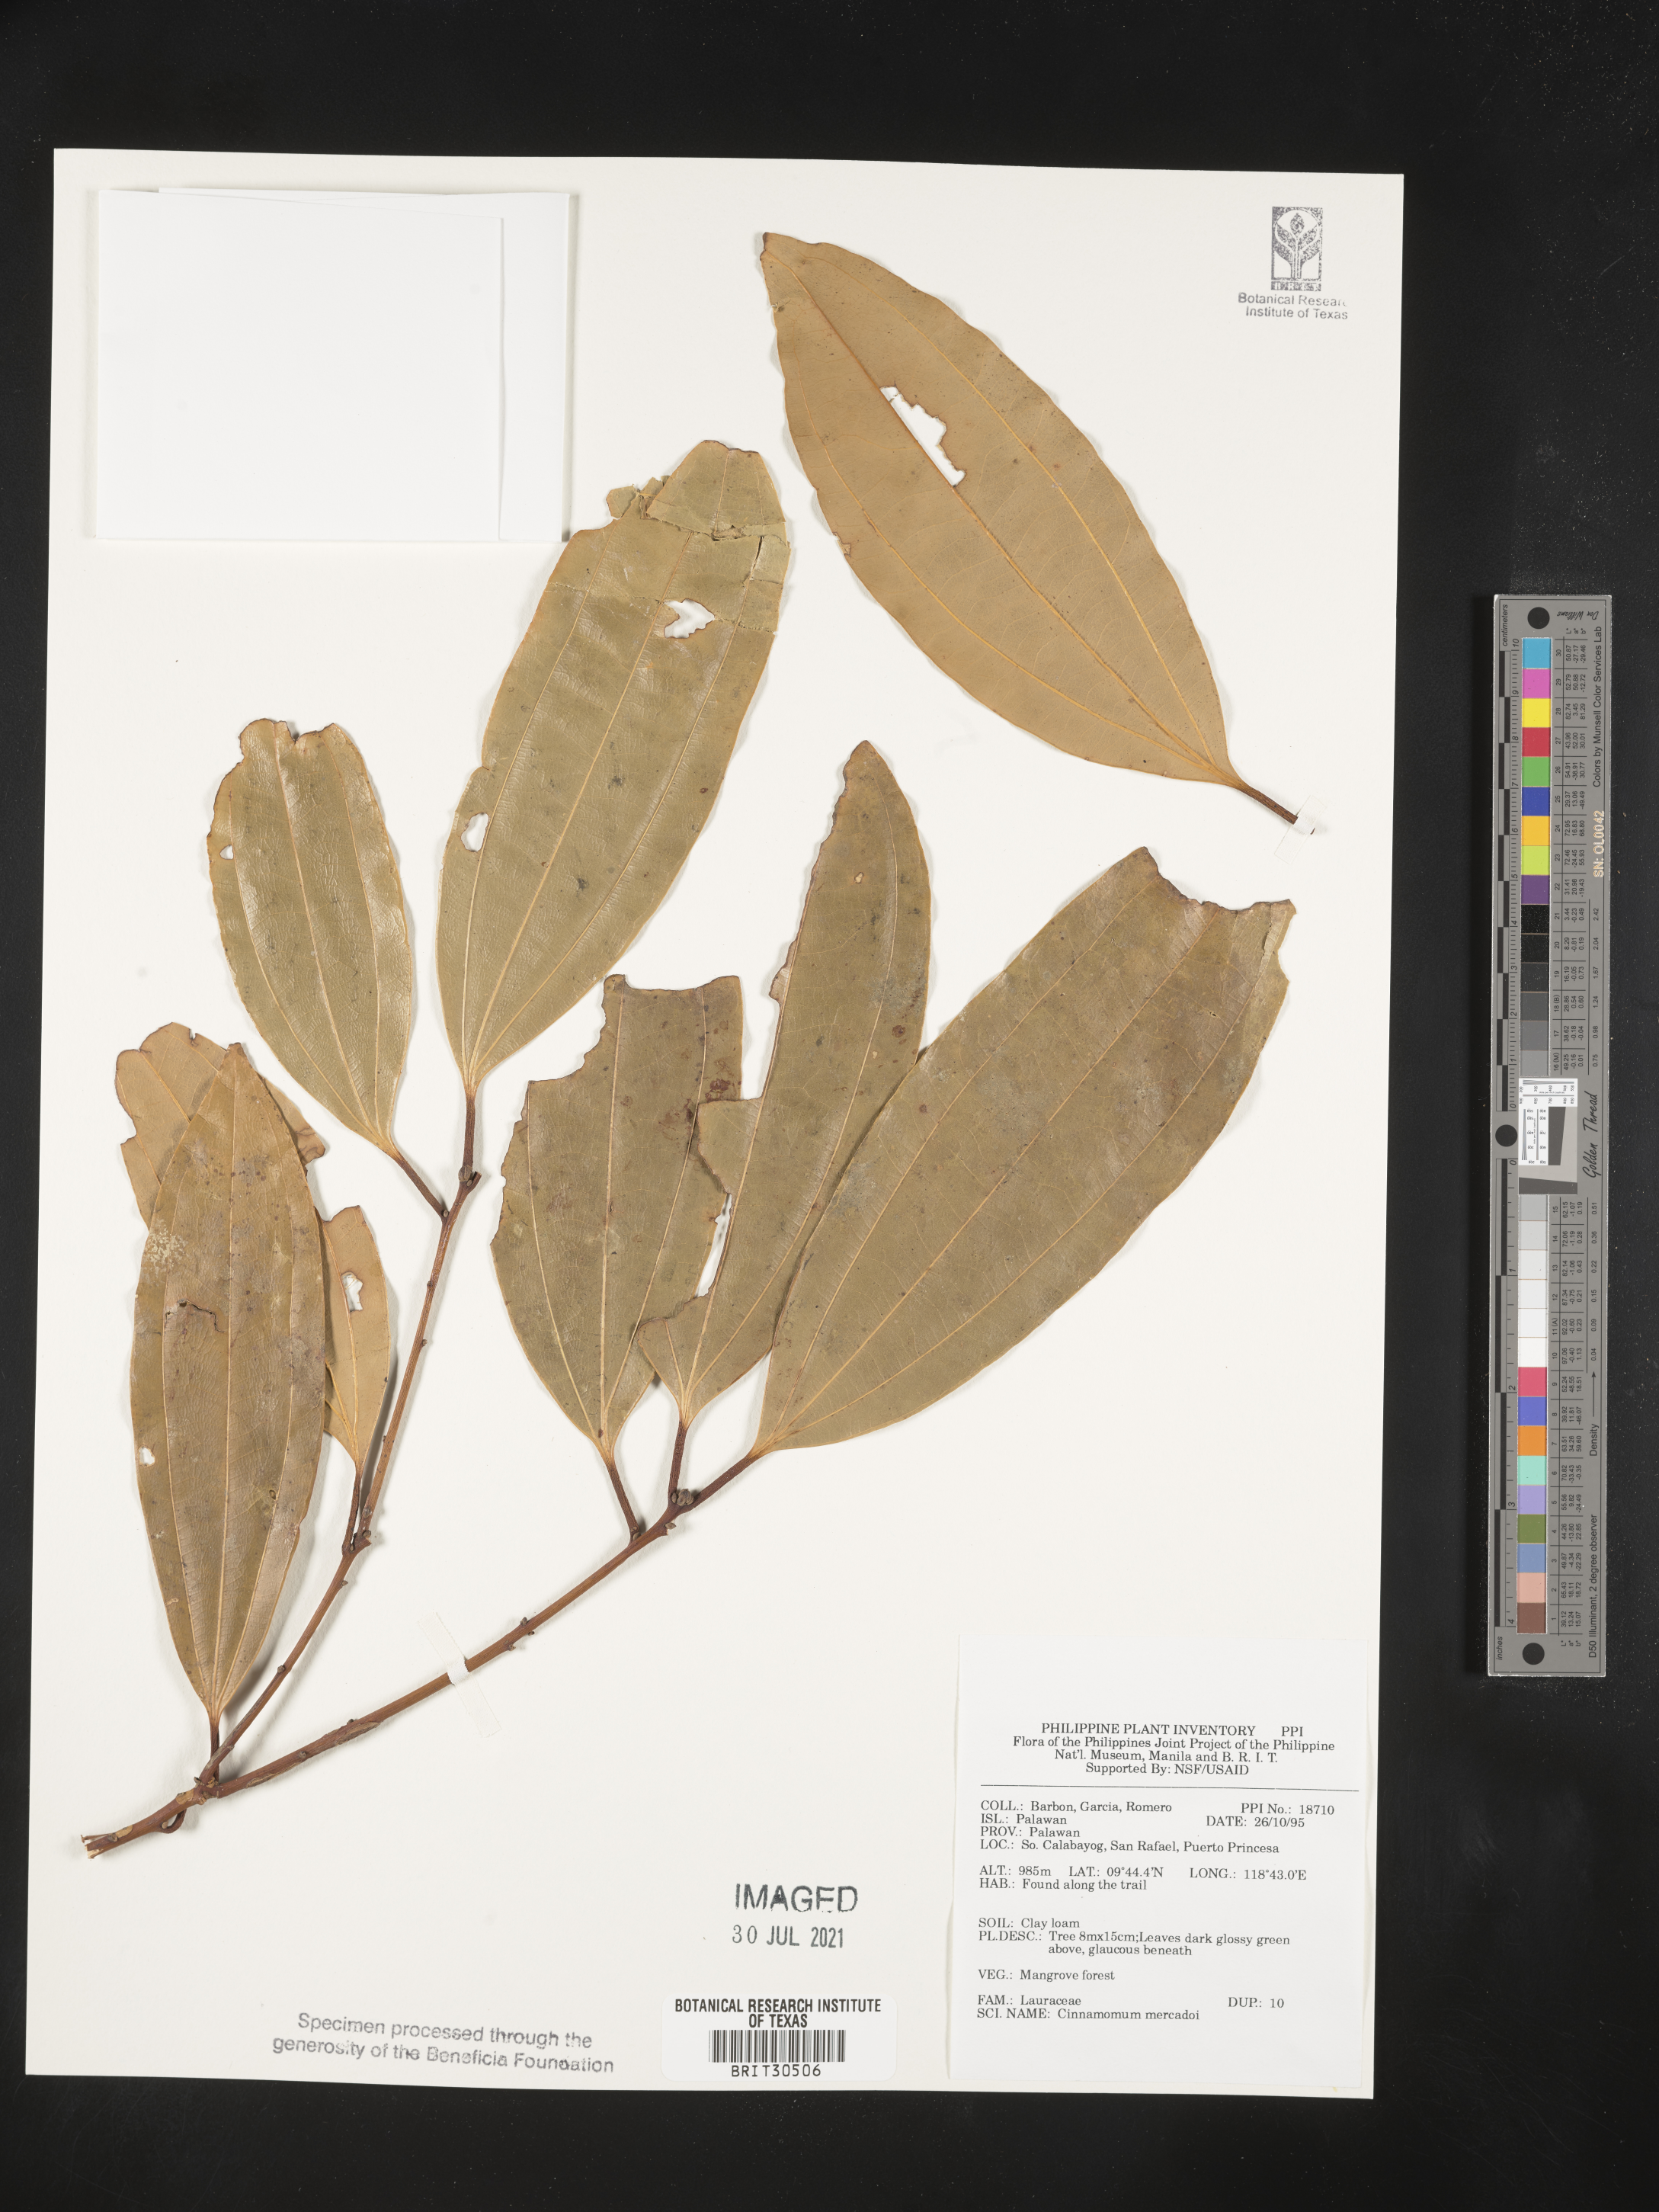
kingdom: Plantae
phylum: Tracheophyta
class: Magnoliopsida
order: Laurales
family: Lauraceae
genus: Cinnamomum
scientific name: Cinnamomum mercadoi
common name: Cinamomon
